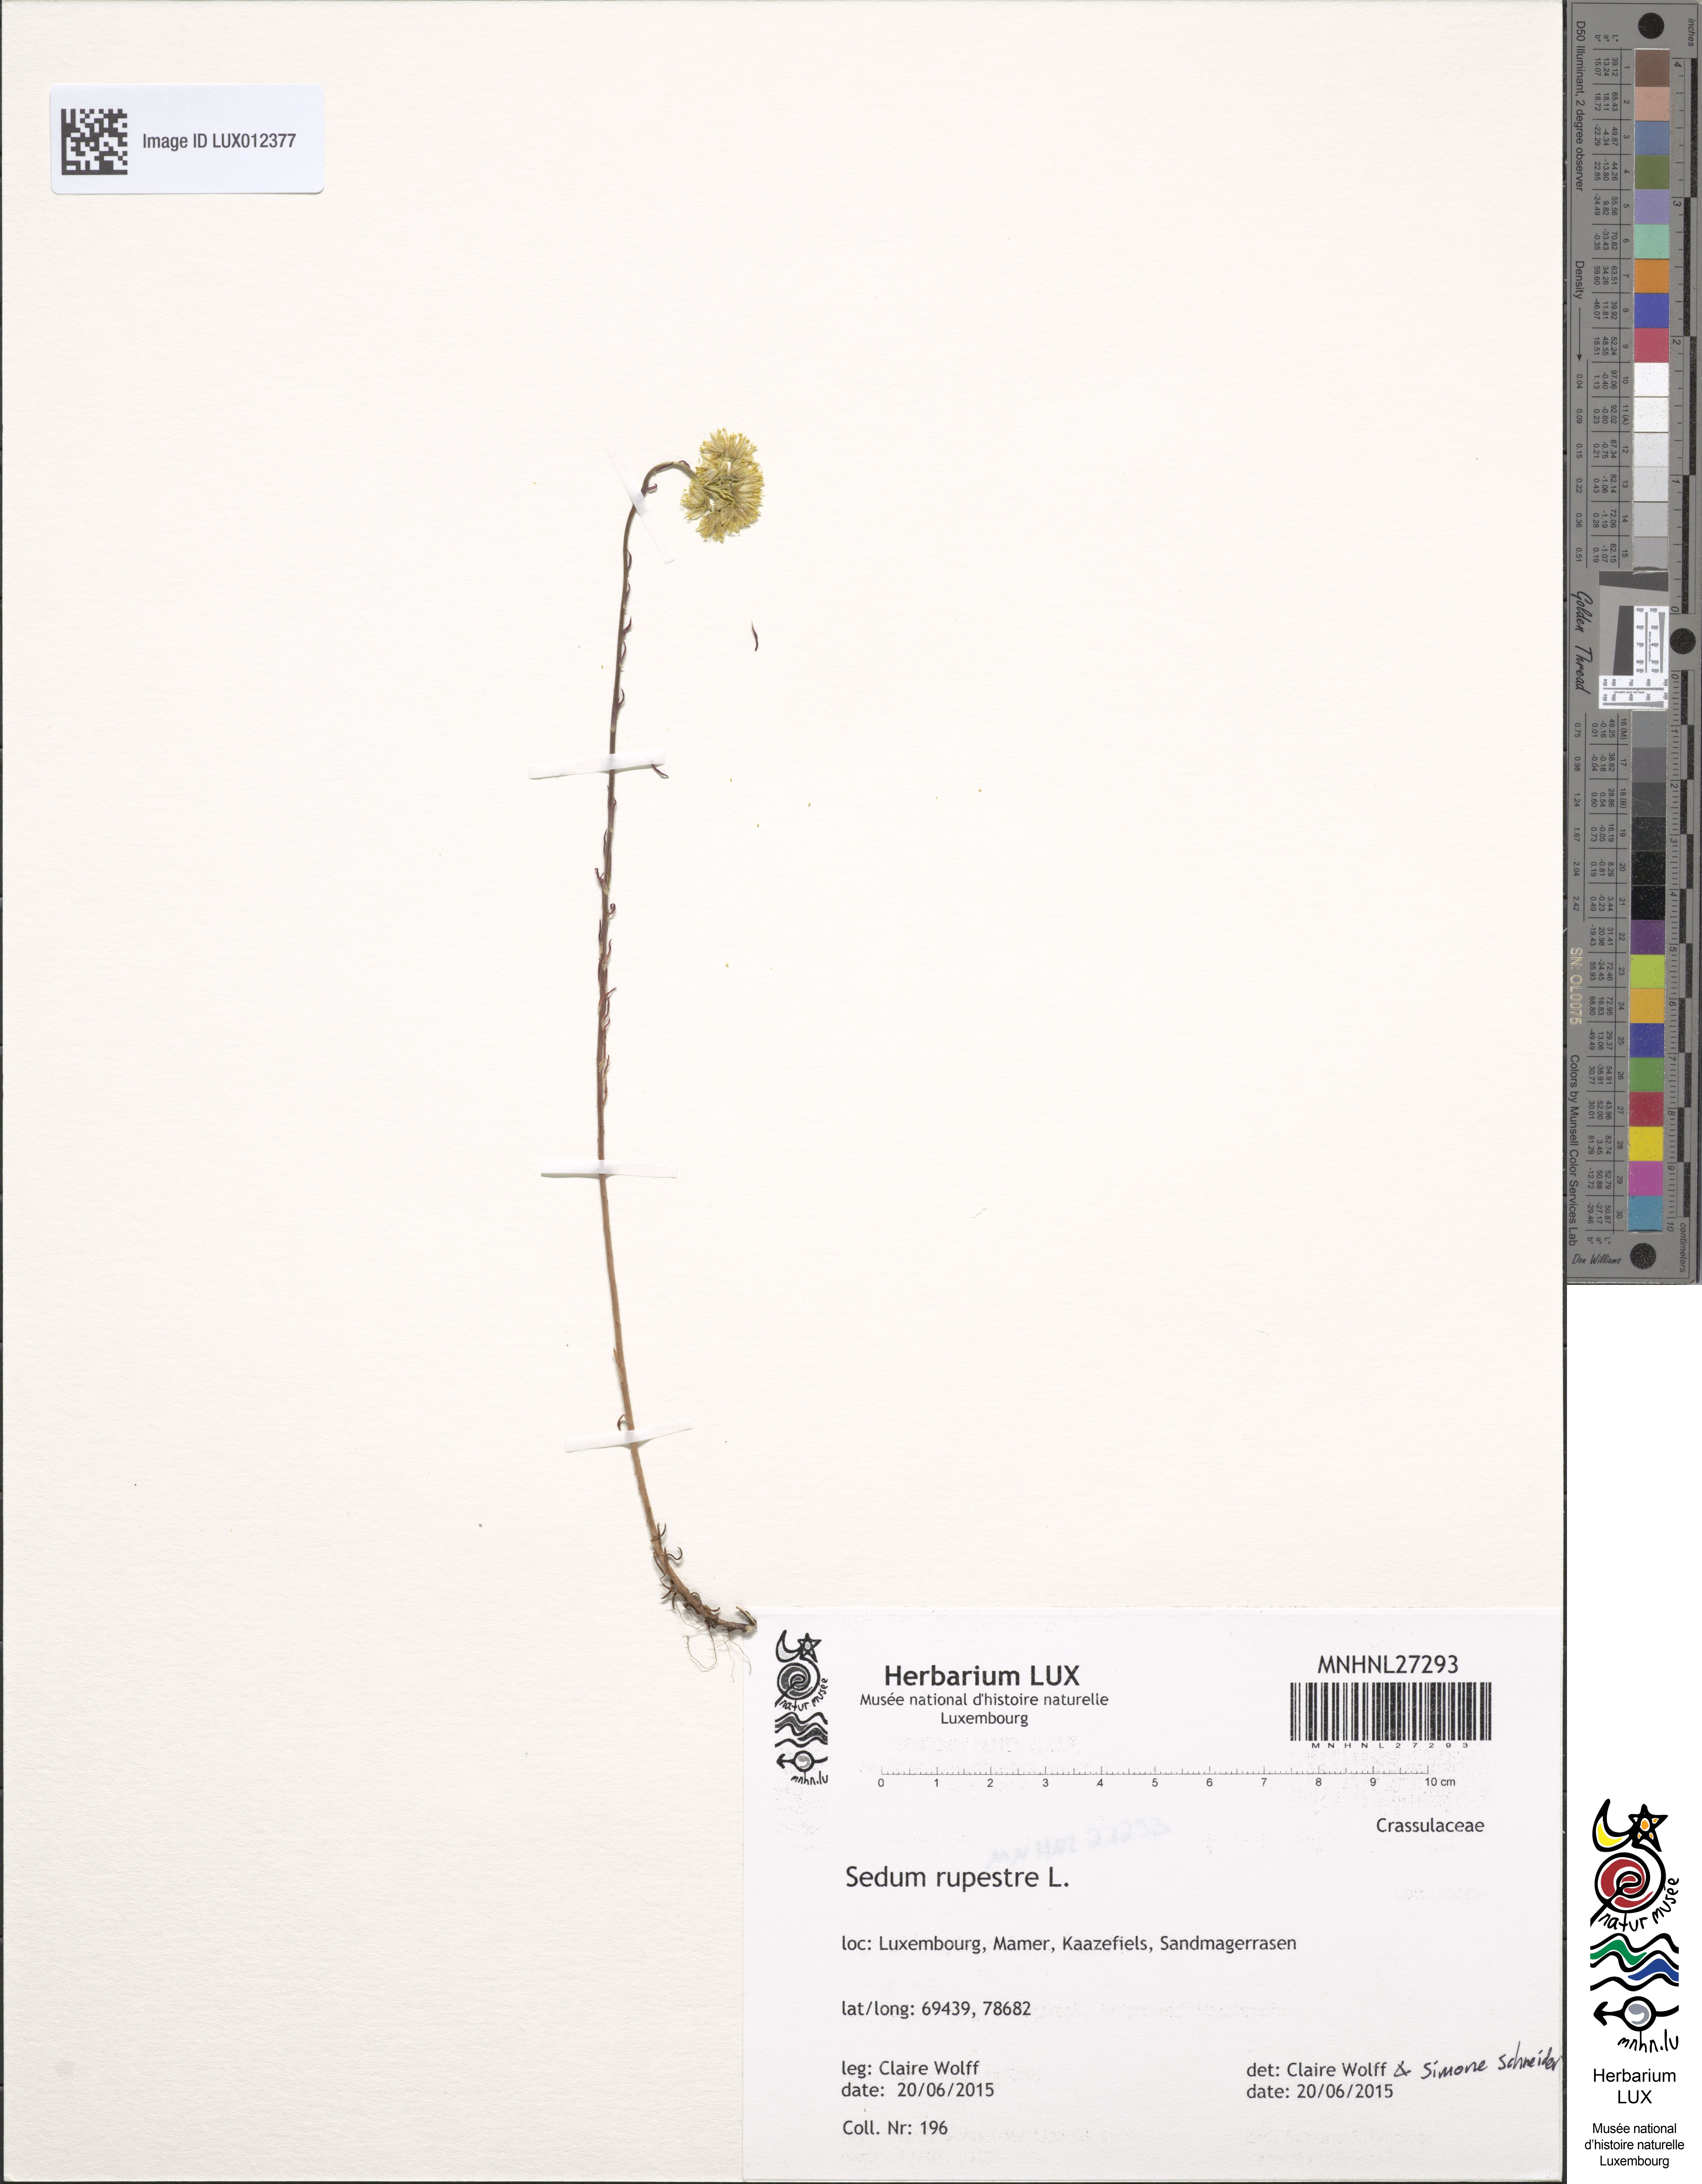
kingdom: Plantae
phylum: Tracheophyta
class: Magnoliopsida
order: Saxifragales
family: Crassulaceae
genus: Petrosedum
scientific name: Petrosedum rupestre
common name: Jenny's stonecrop
